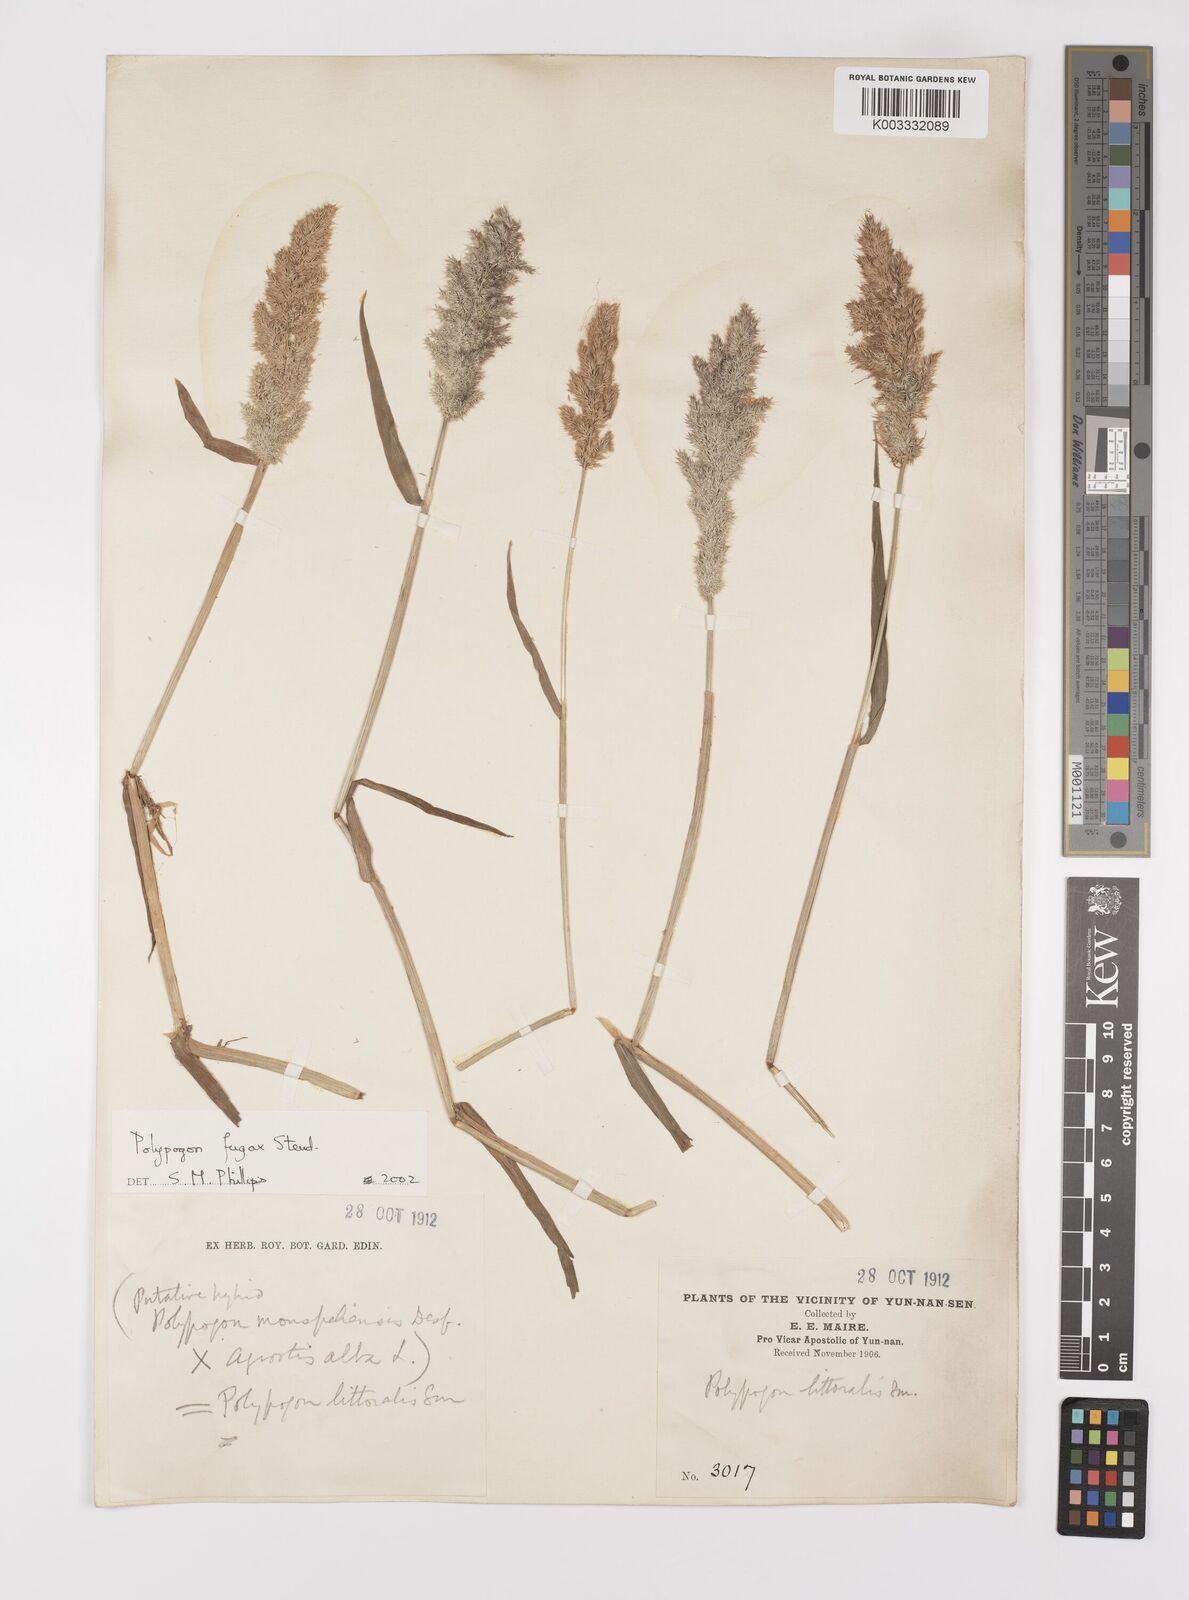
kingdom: Plantae
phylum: Tracheophyta
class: Liliopsida
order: Poales
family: Poaceae
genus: Polypogon
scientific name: Polypogon fugax
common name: Asia minor bluegrass
